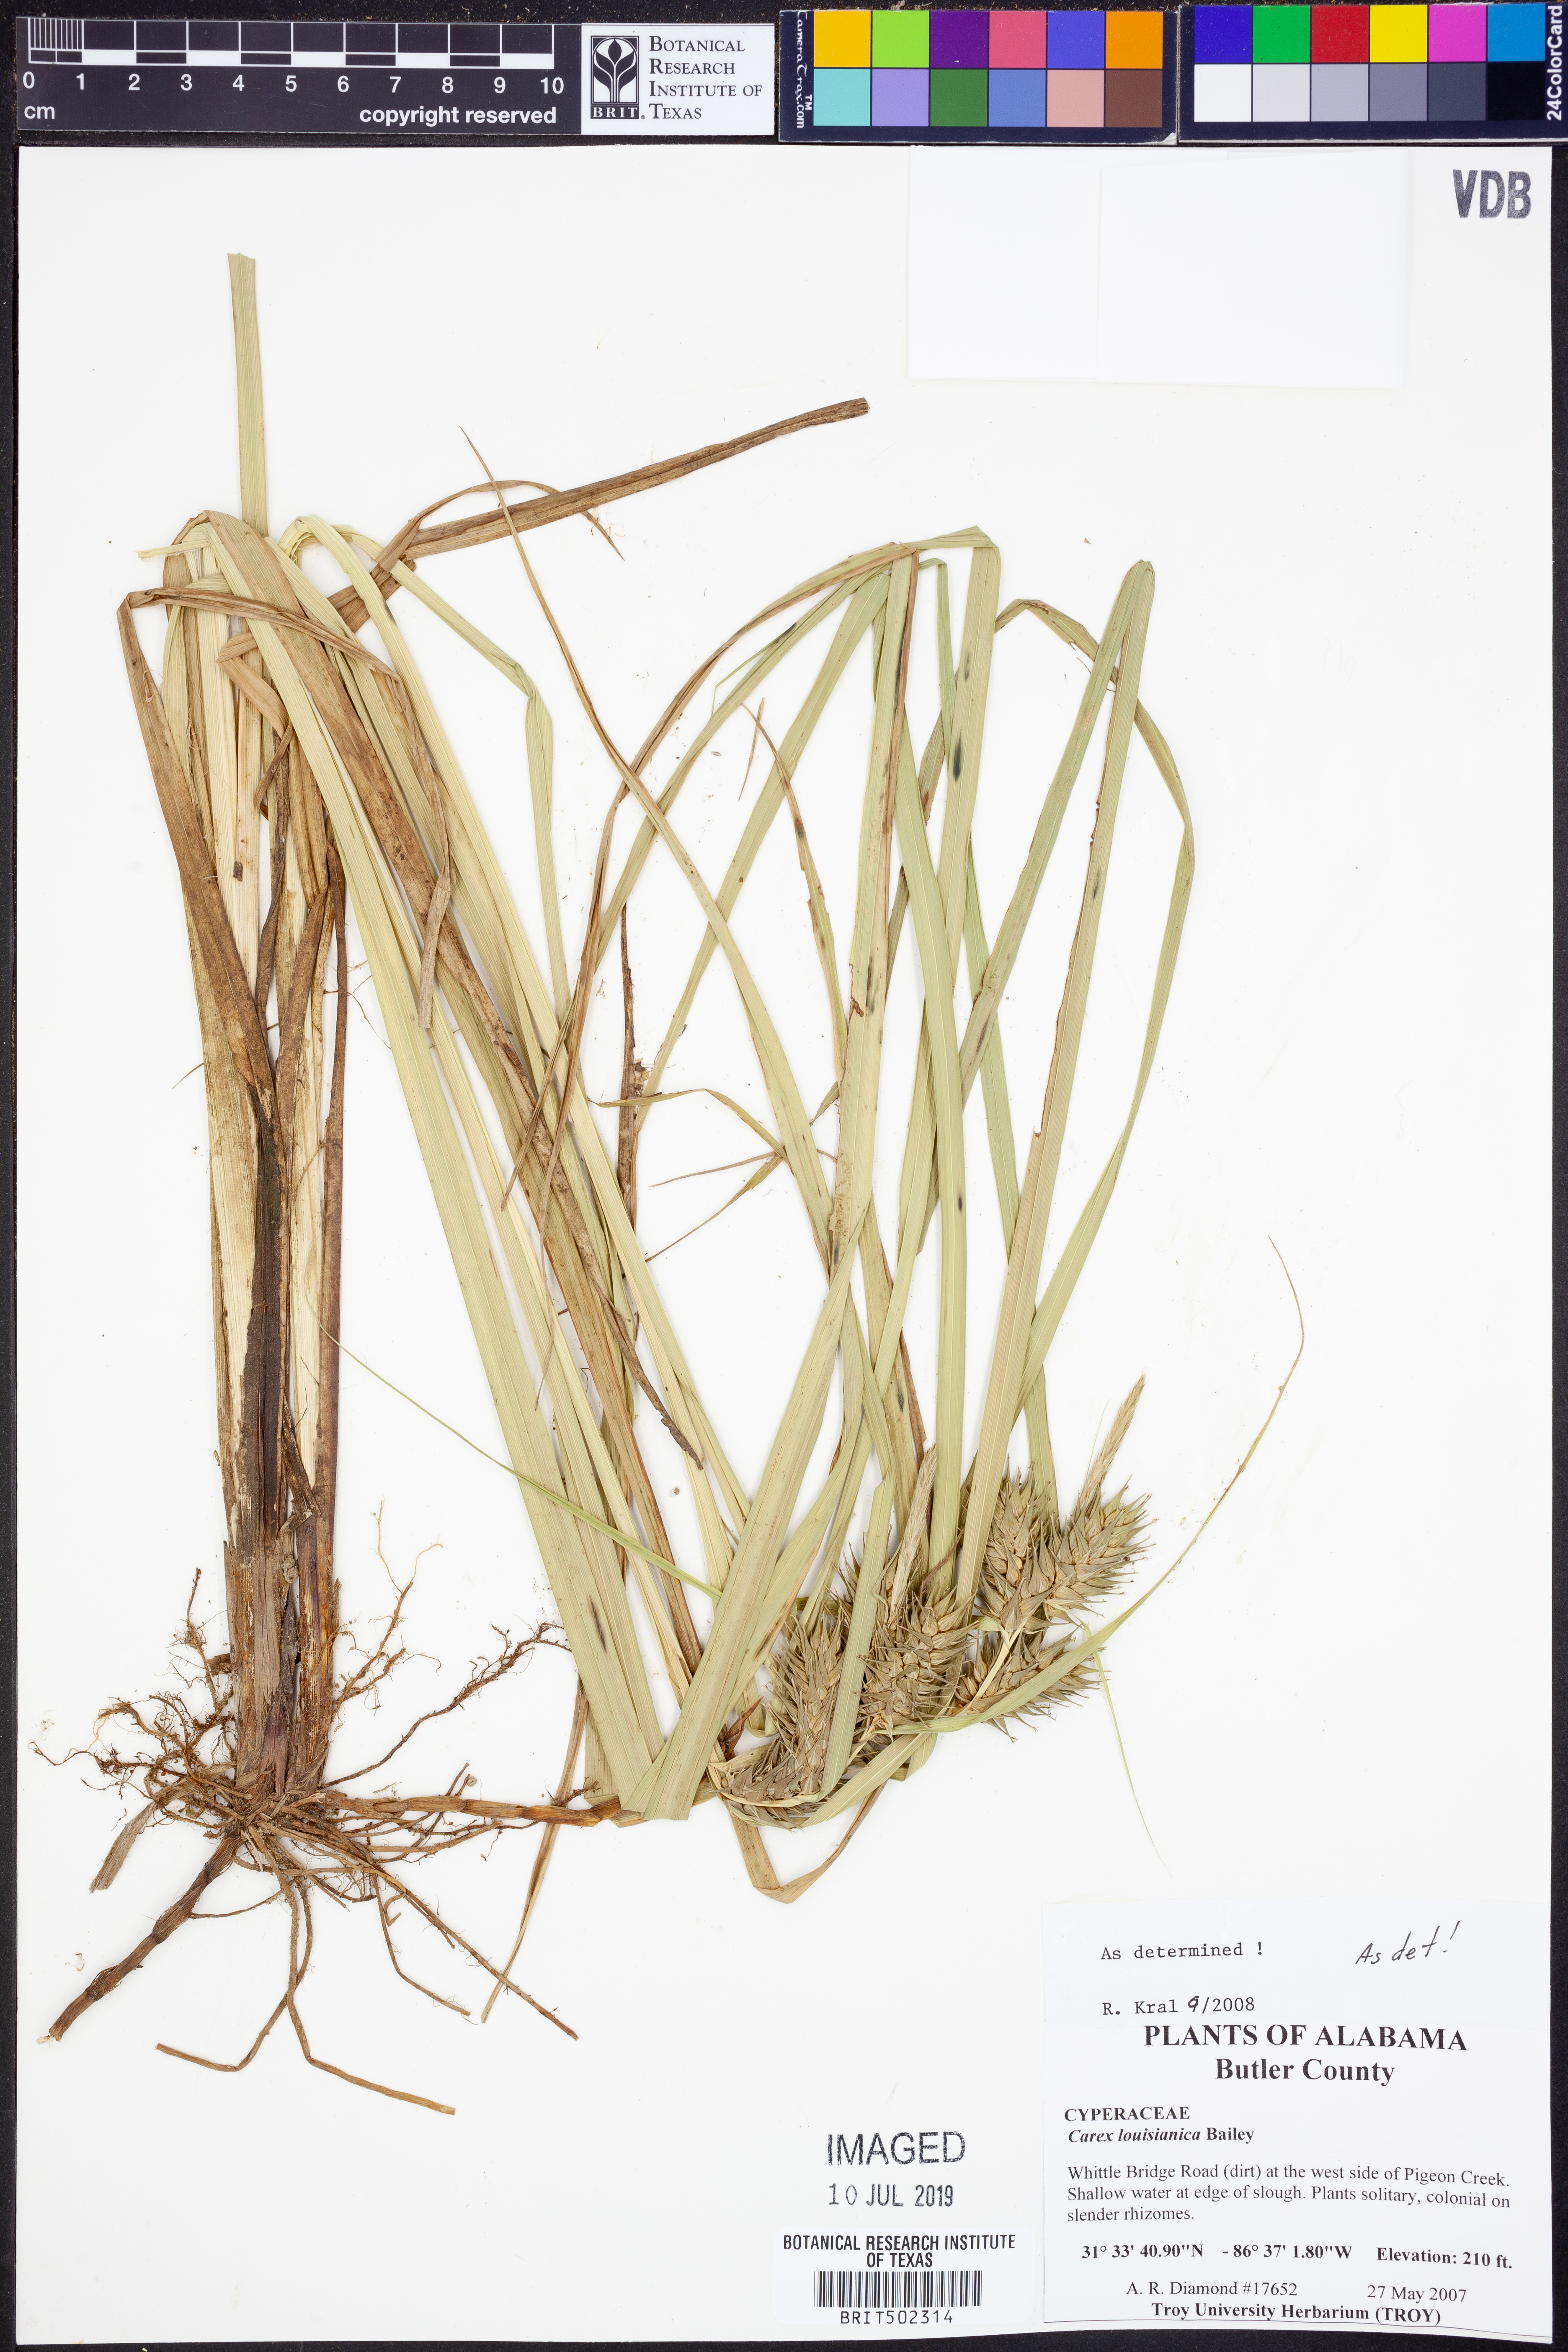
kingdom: Plantae
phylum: Tracheophyta
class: Liliopsida
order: Poales
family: Cyperaceae
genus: Carex
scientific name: Carex louisianica
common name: Louisiana sedge
